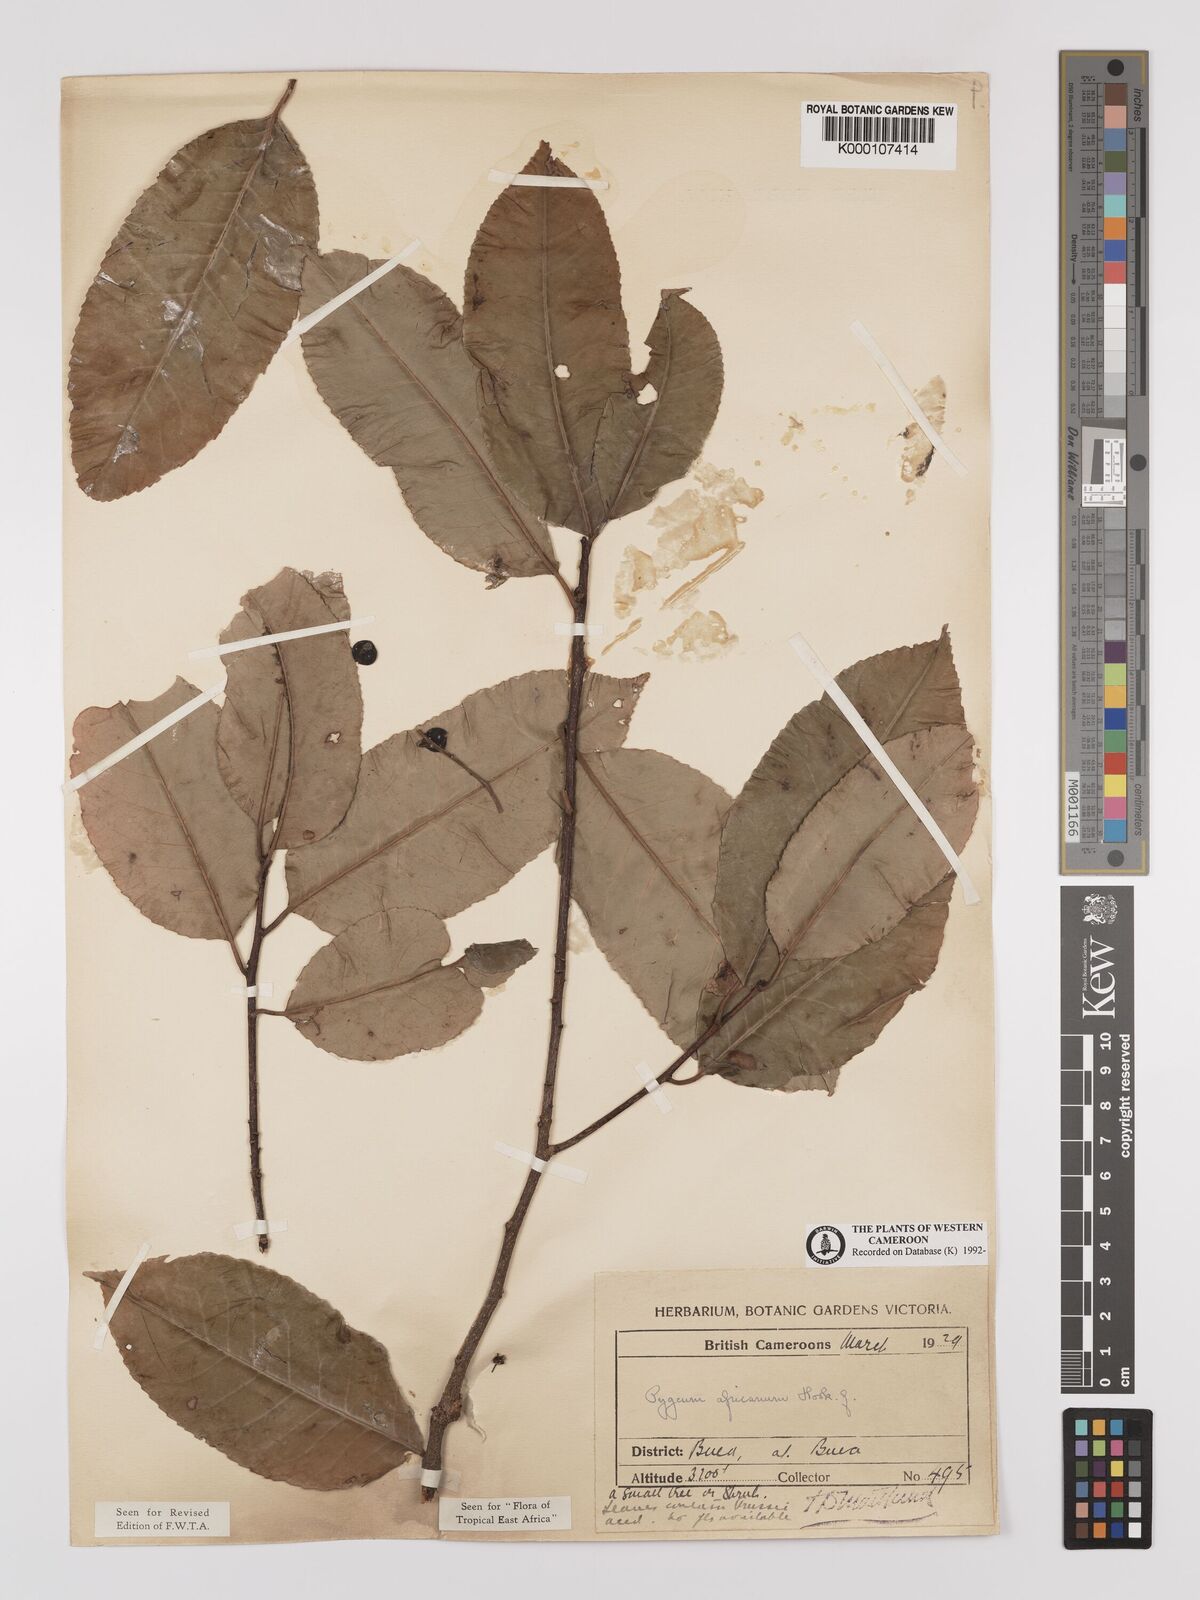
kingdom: Plantae
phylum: Tracheophyta
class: Magnoliopsida
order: Rosales
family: Rosaceae
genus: Prunus
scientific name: Prunus africana
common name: African cherry
